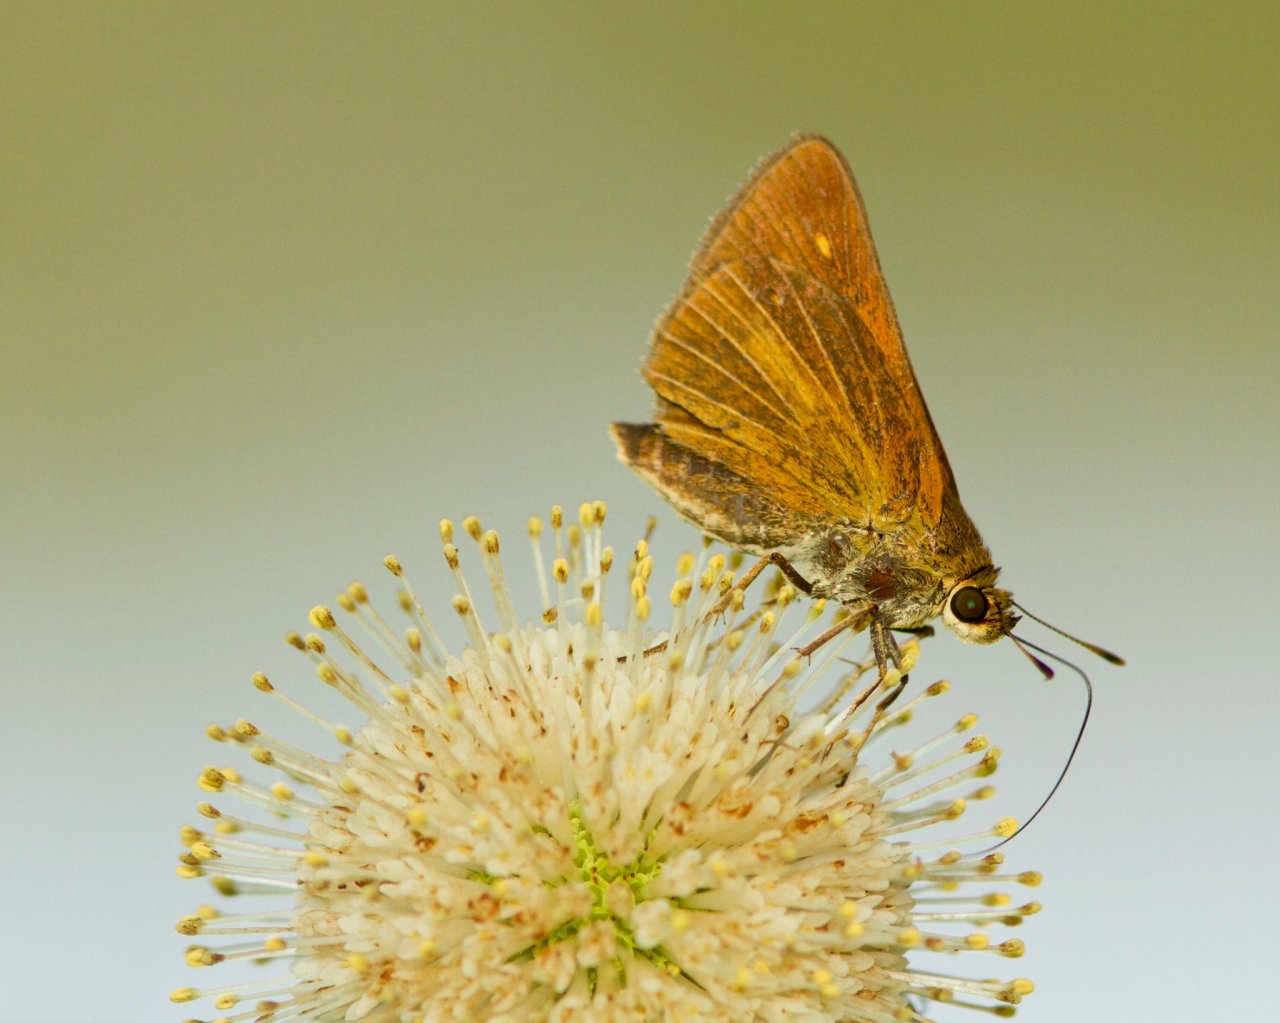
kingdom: Animalia
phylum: Arthropoda
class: Insecta
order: Lepidoptera
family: Hesperiidae
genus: Euphyes
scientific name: Euphyes dion
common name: Dion Skipper
